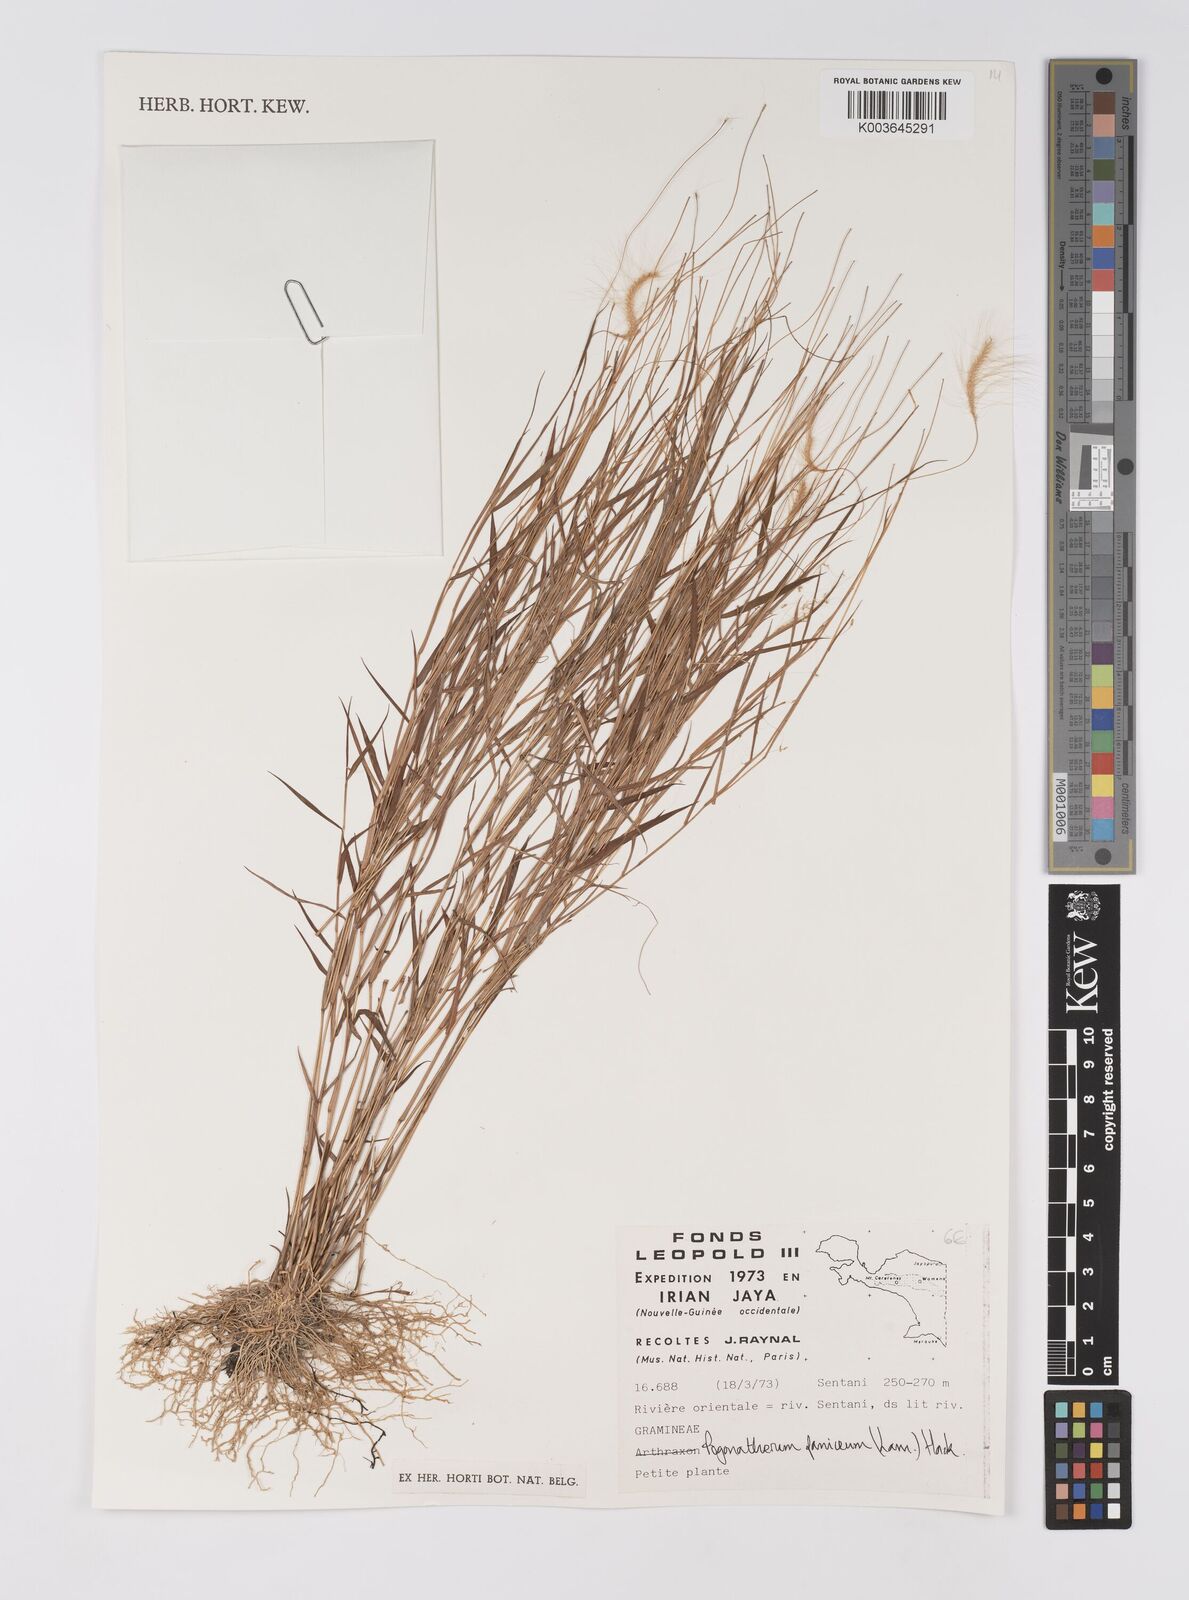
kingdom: Plantae
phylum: Tracheophyta
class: Liliopsida
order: Poales
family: Poaceae
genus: Pogonatherum
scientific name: Pogonatherum paniceum
